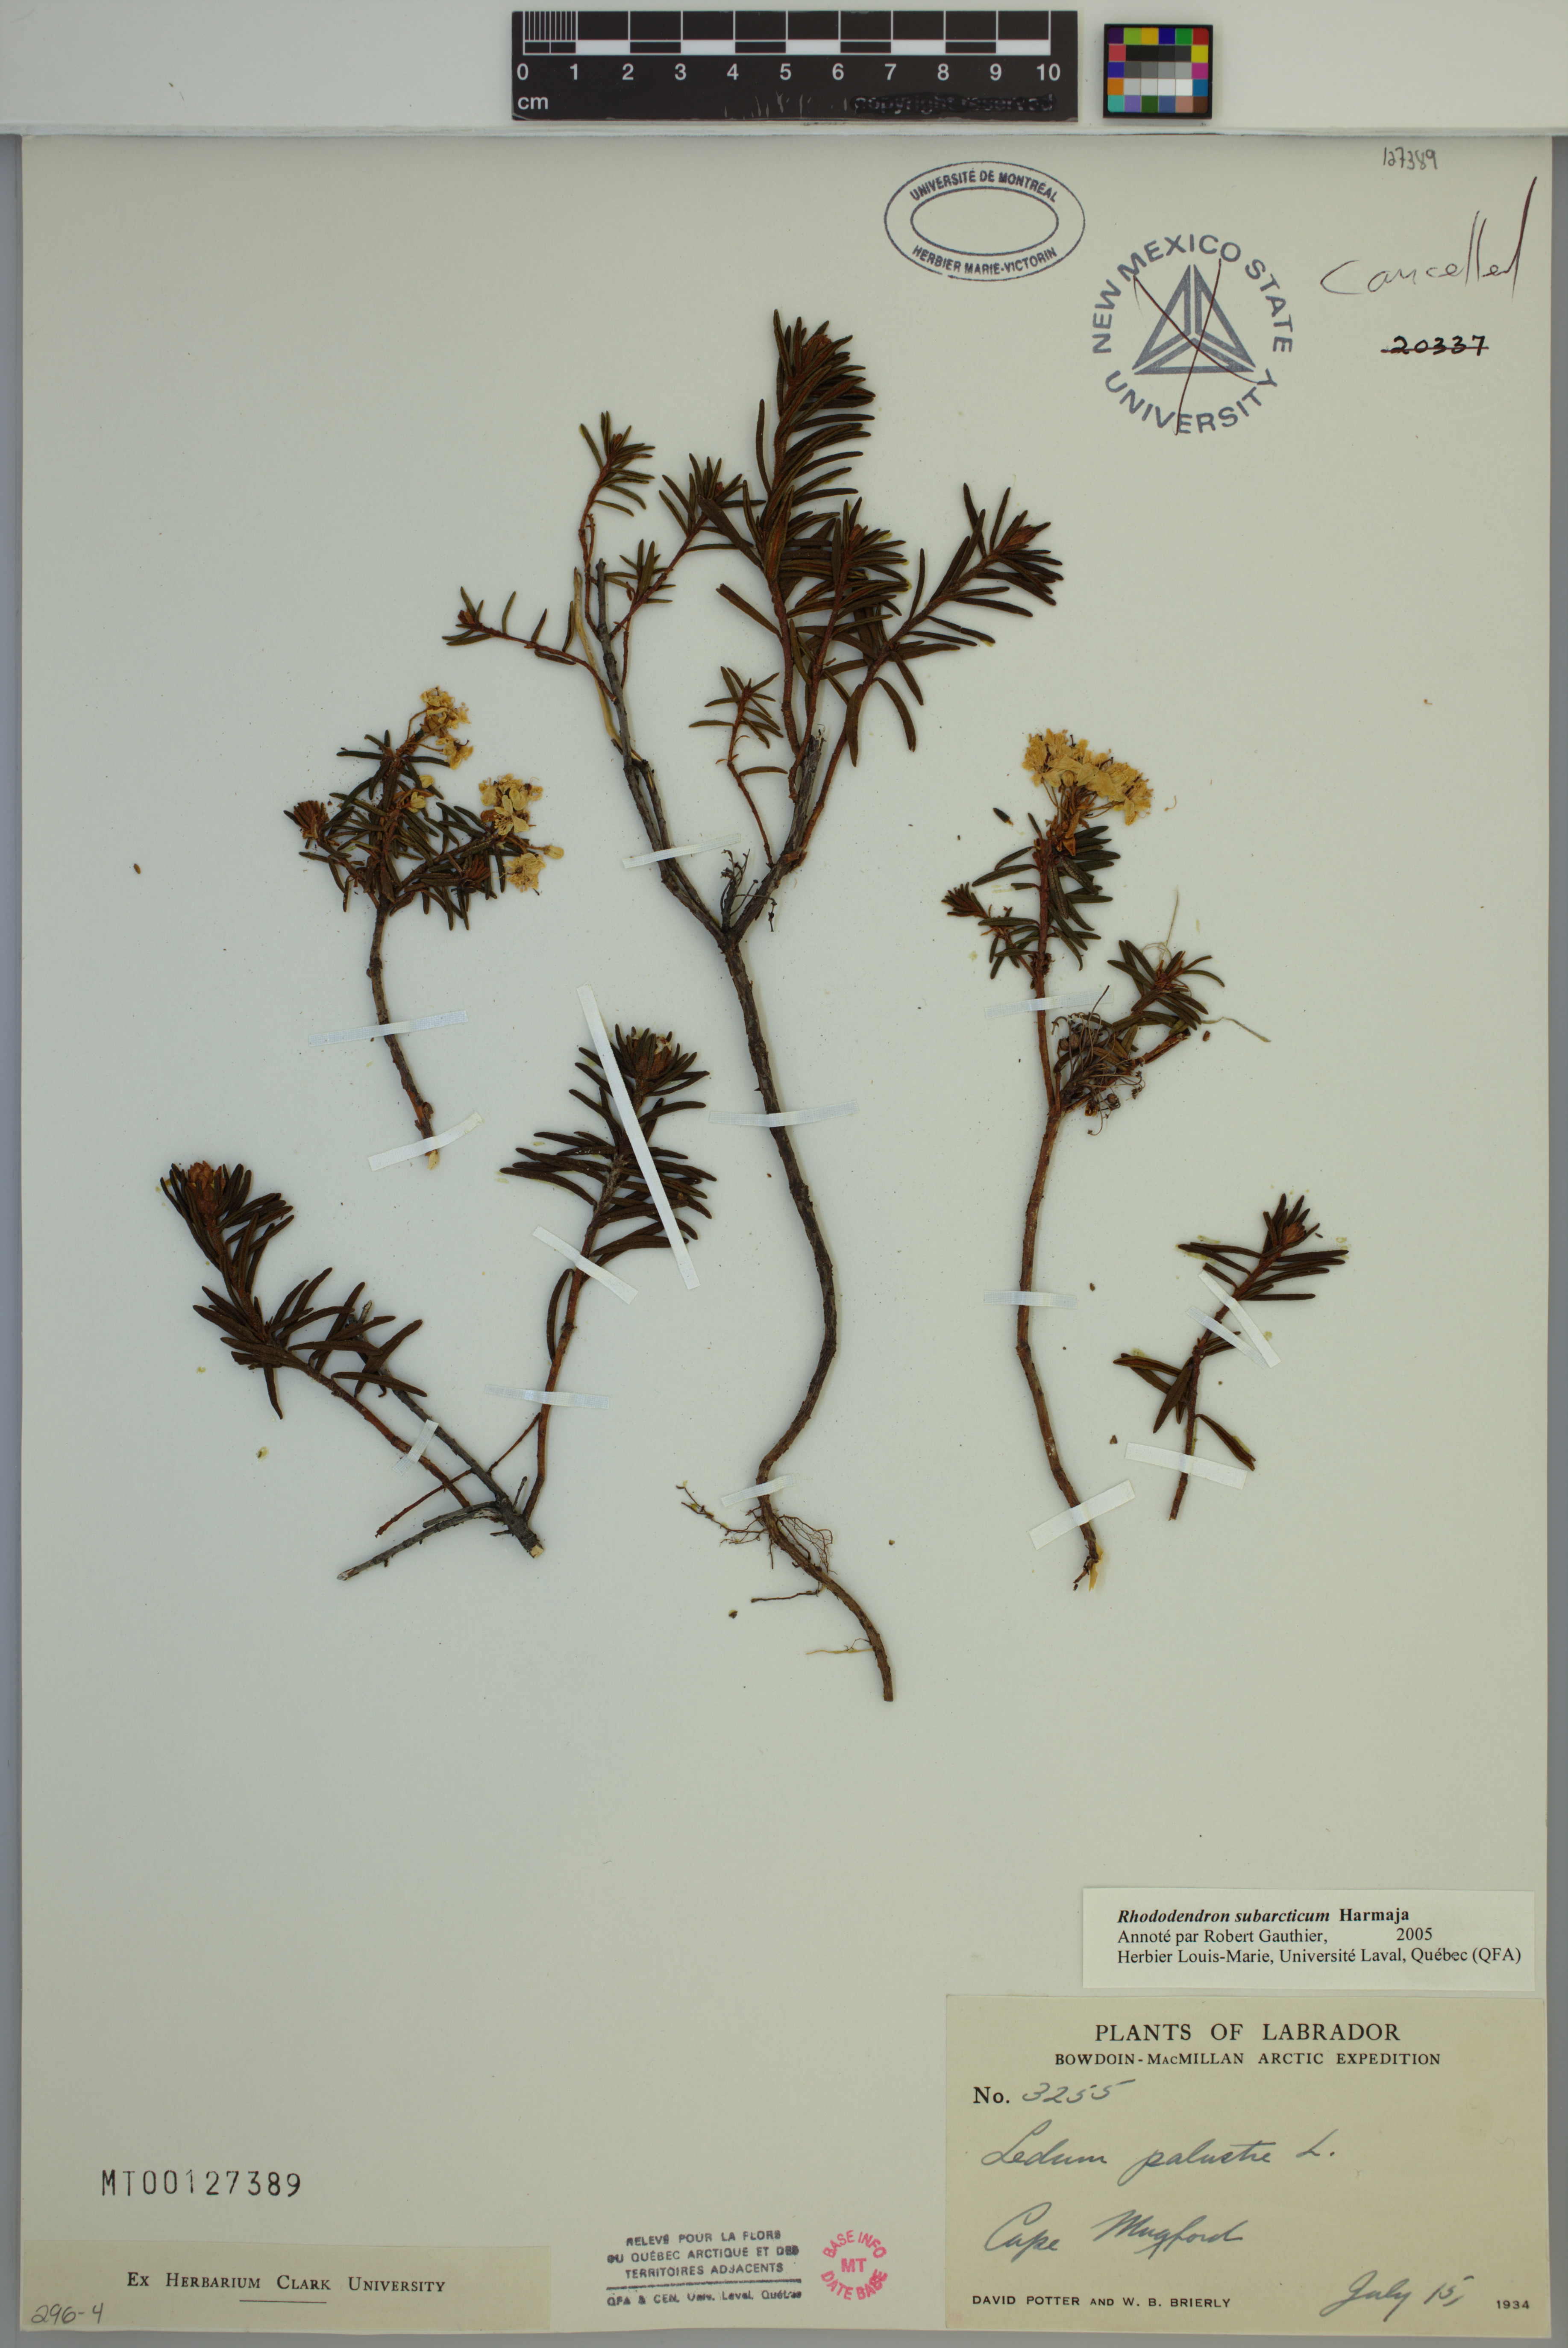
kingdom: Plantae
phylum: Tracheophyta
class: Magnoliopsida
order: Ericales
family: Ericaceae
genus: Rhododendron
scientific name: Rhododendron tomentosum
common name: Marsh labrador tea
